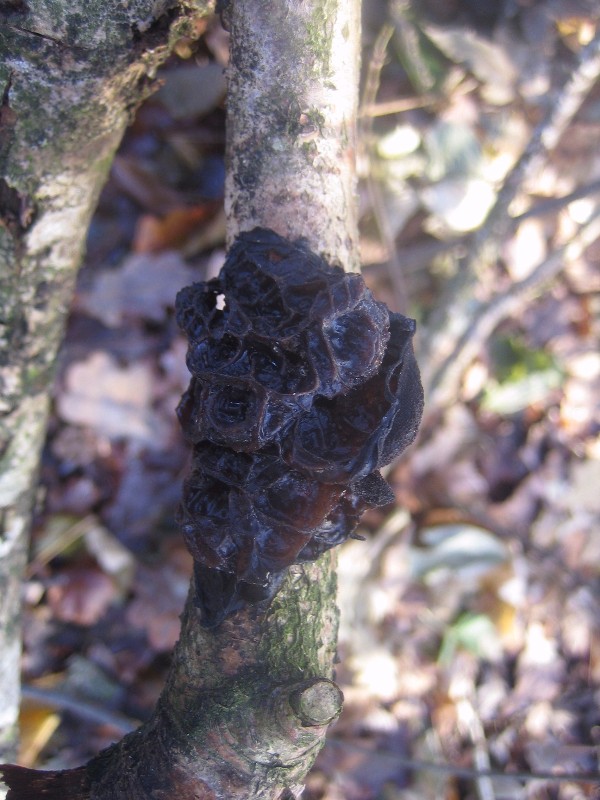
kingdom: Fungi
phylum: Basidiomycota
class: Agaricomycetes
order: Auriculariales
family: Auriculariaceae
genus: Exidia
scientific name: Exidia glandulosa
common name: ege-bævretop
